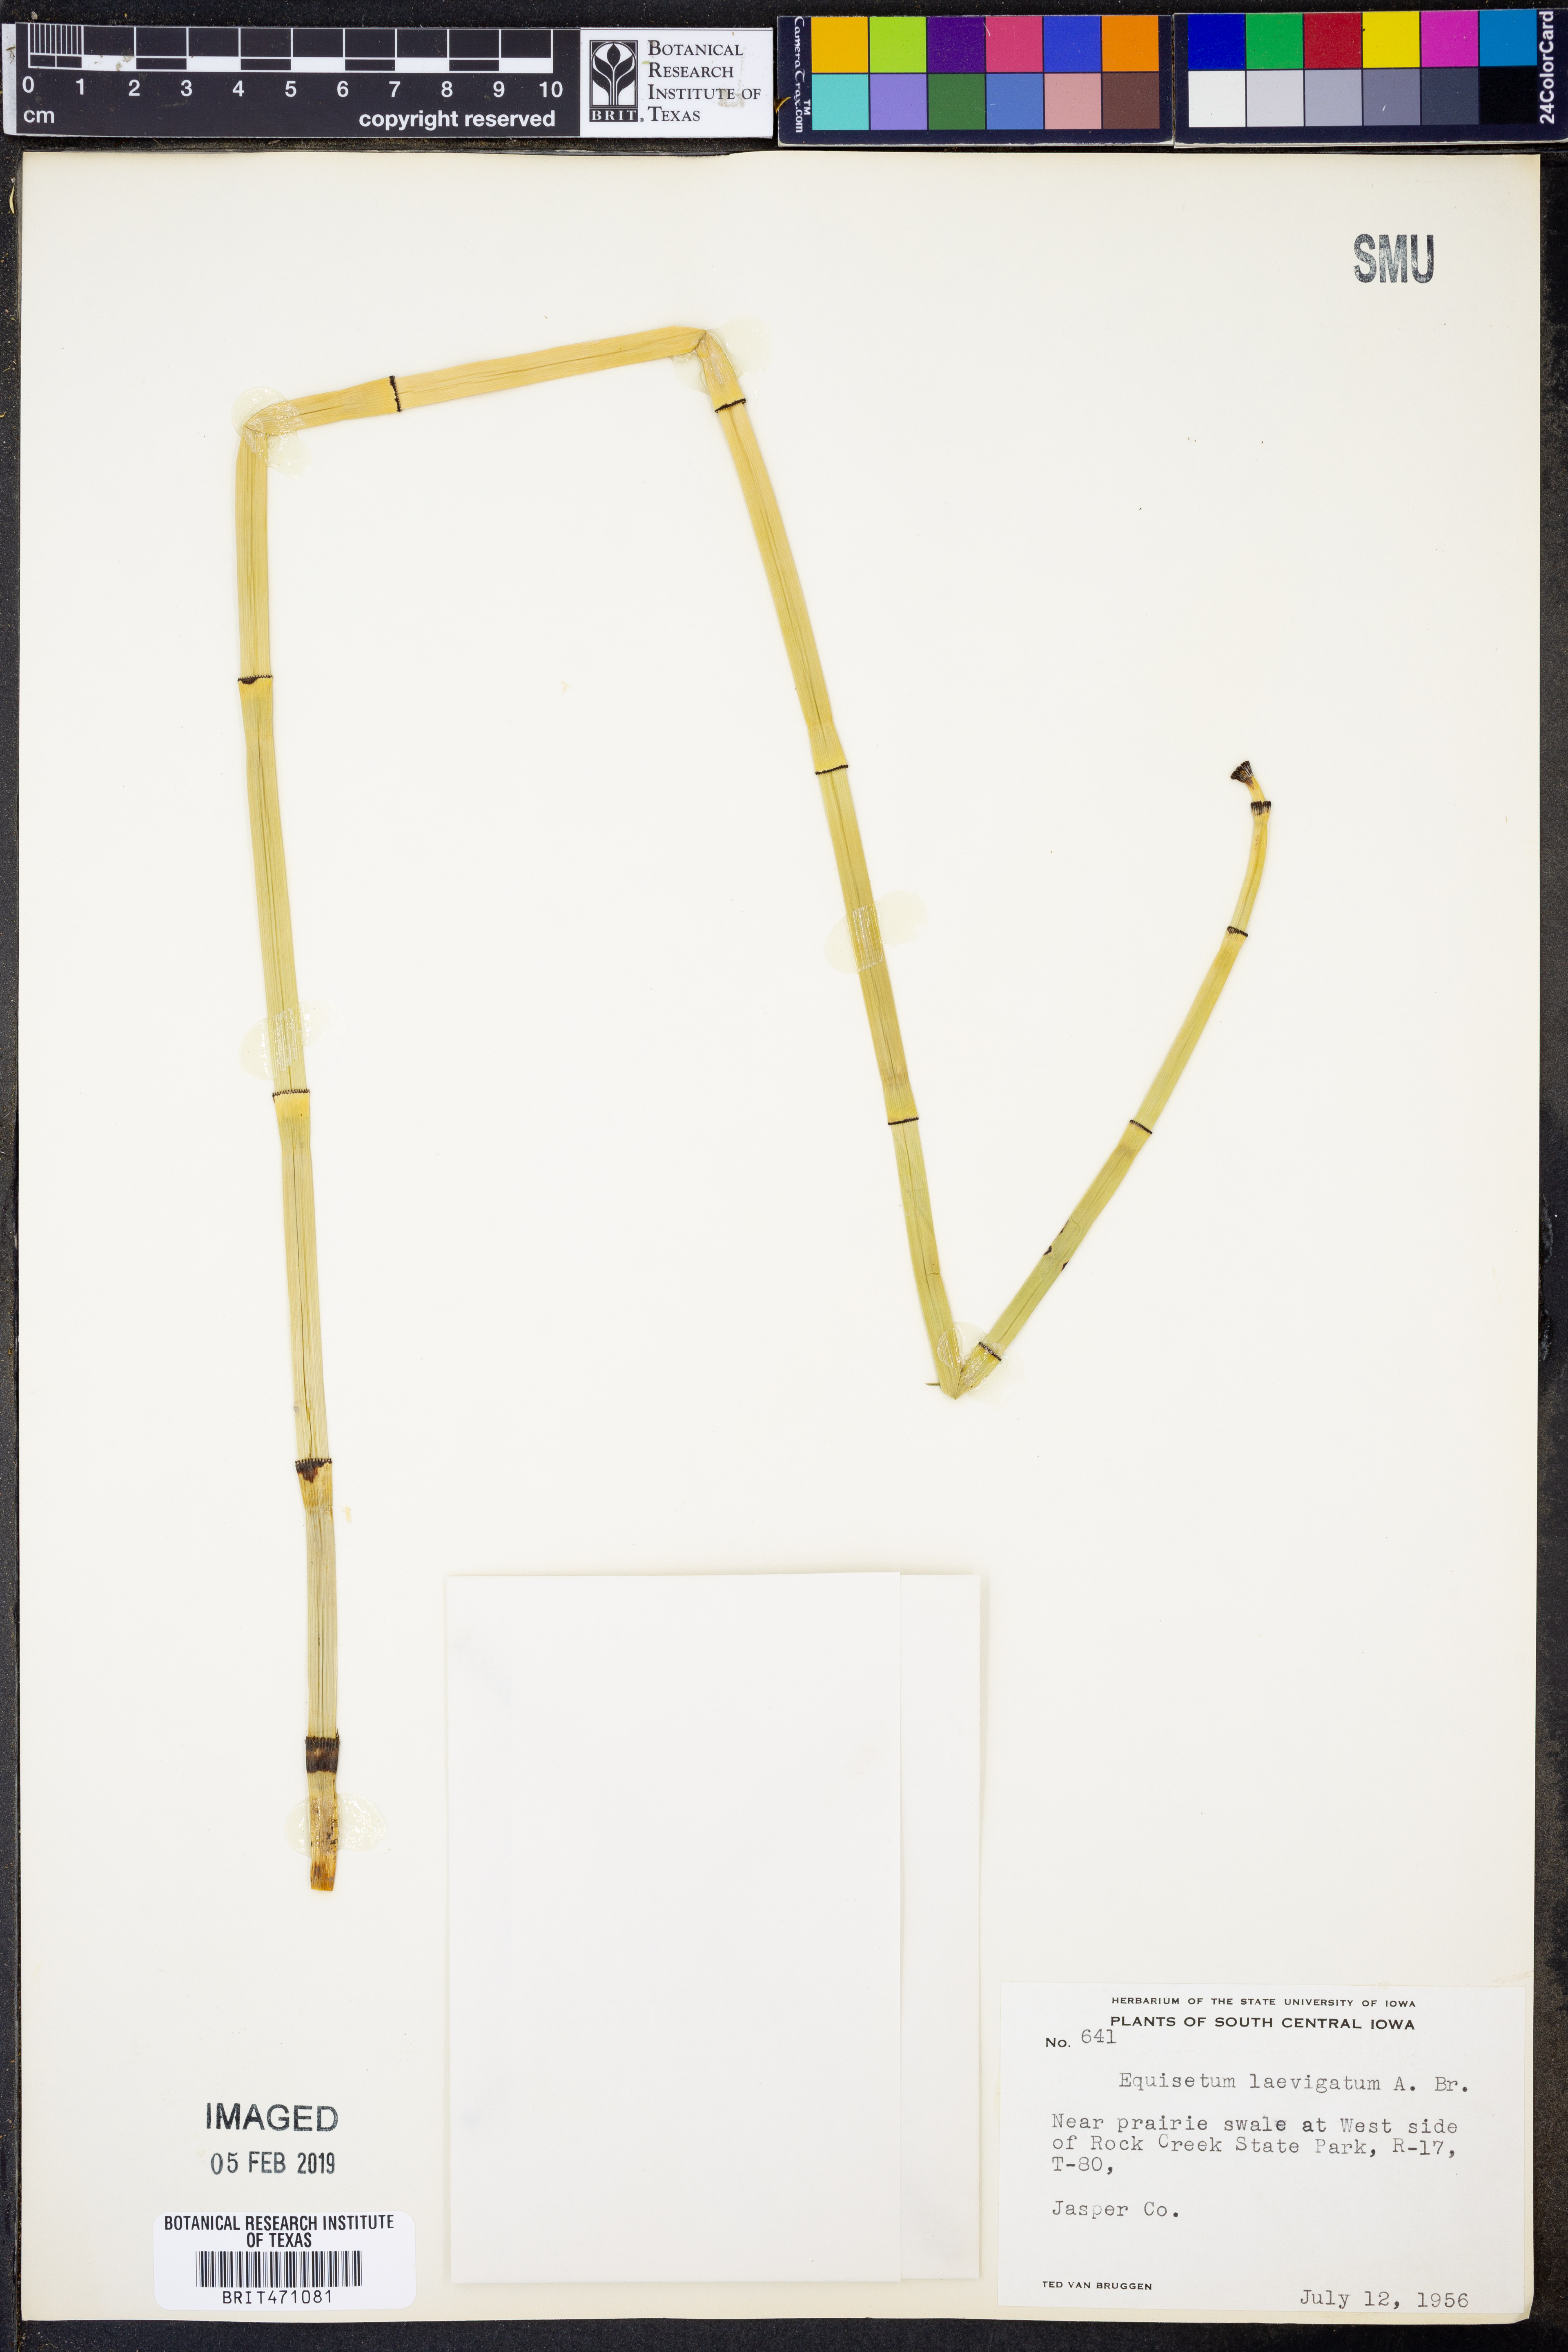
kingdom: Plantae
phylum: Tracheophyta
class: Polypodiopsida
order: Equisetales
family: Equisetaceae
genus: Equisetum
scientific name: Equisetum laevigatum
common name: Smooth scouring-rush
